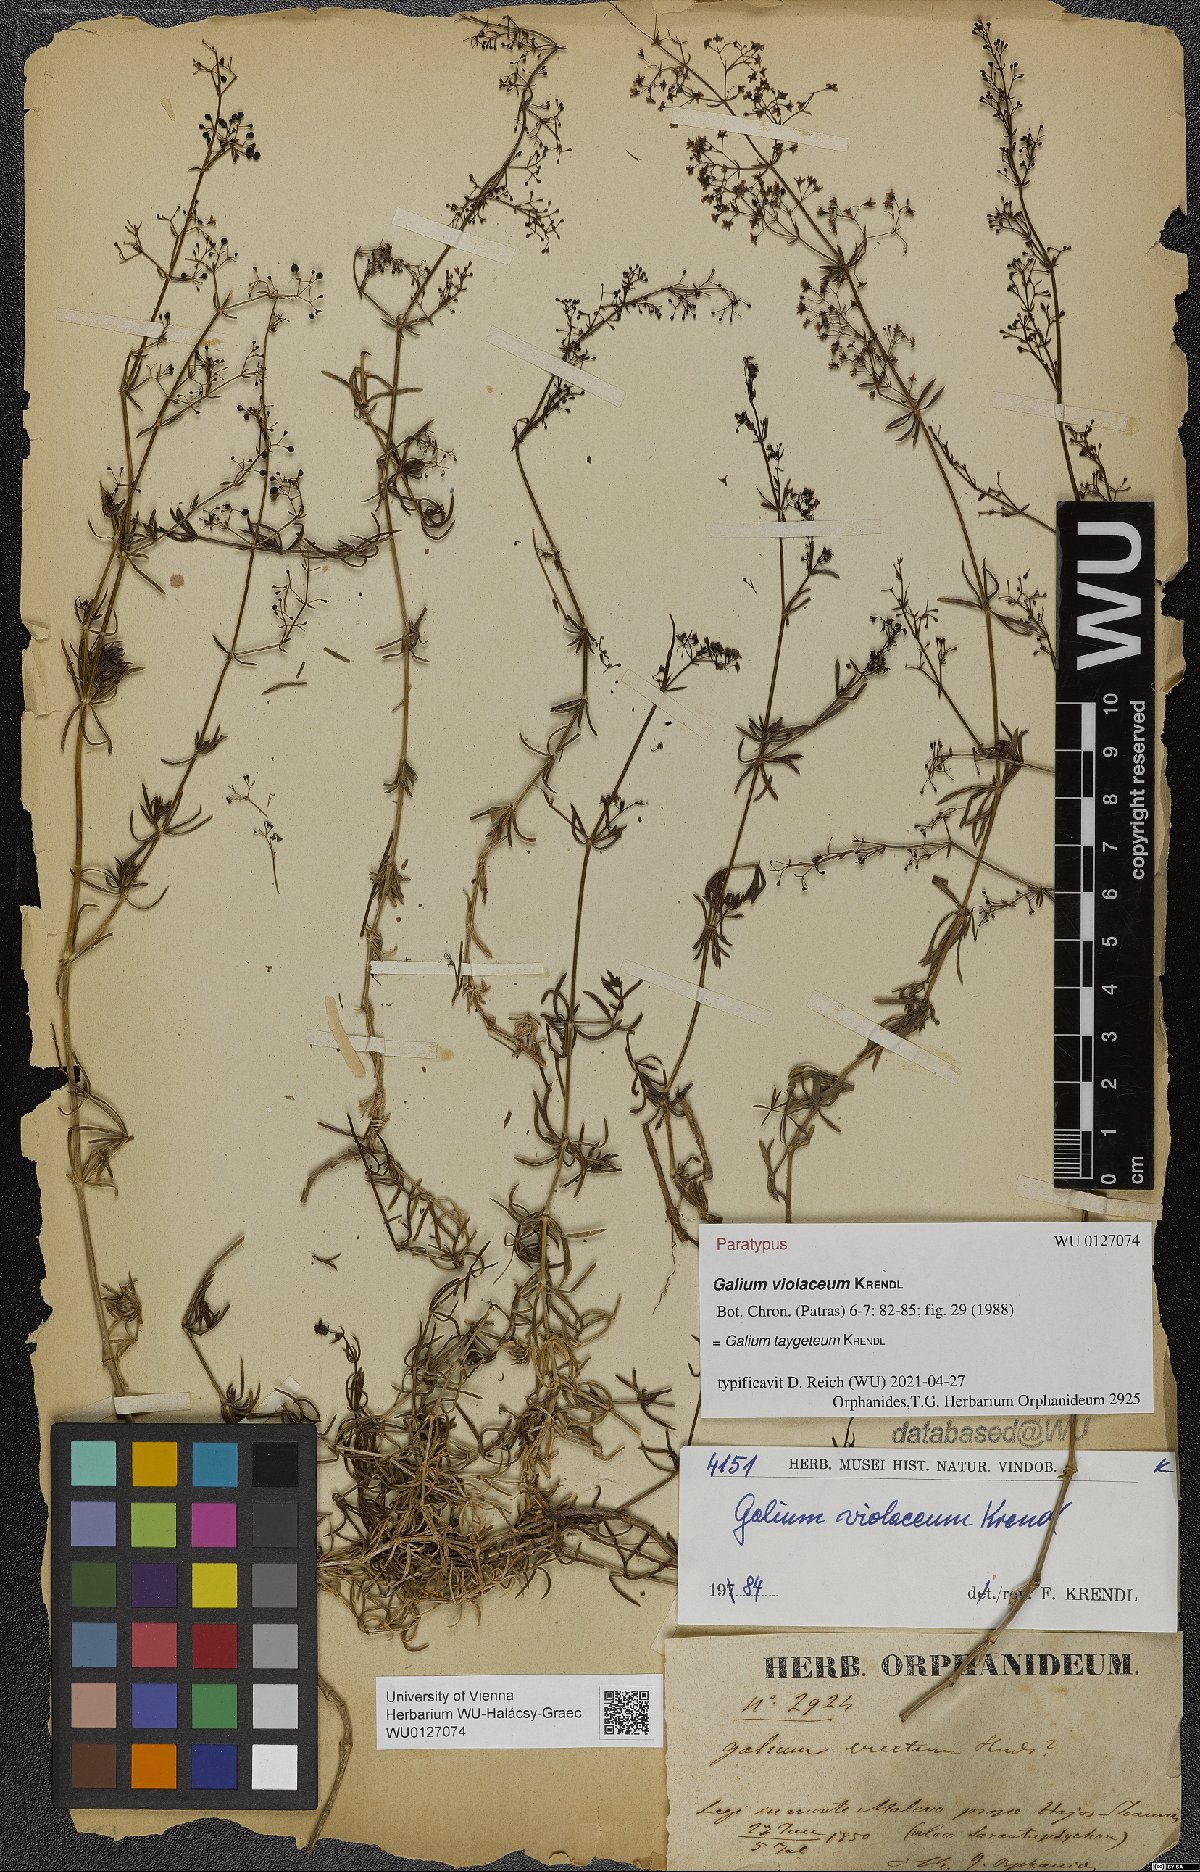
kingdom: Plantae
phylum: Tracheophyta
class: Magnoliopsida
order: Gentianales
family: Rubiaceae
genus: Galium
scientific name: Galium taygeteum
